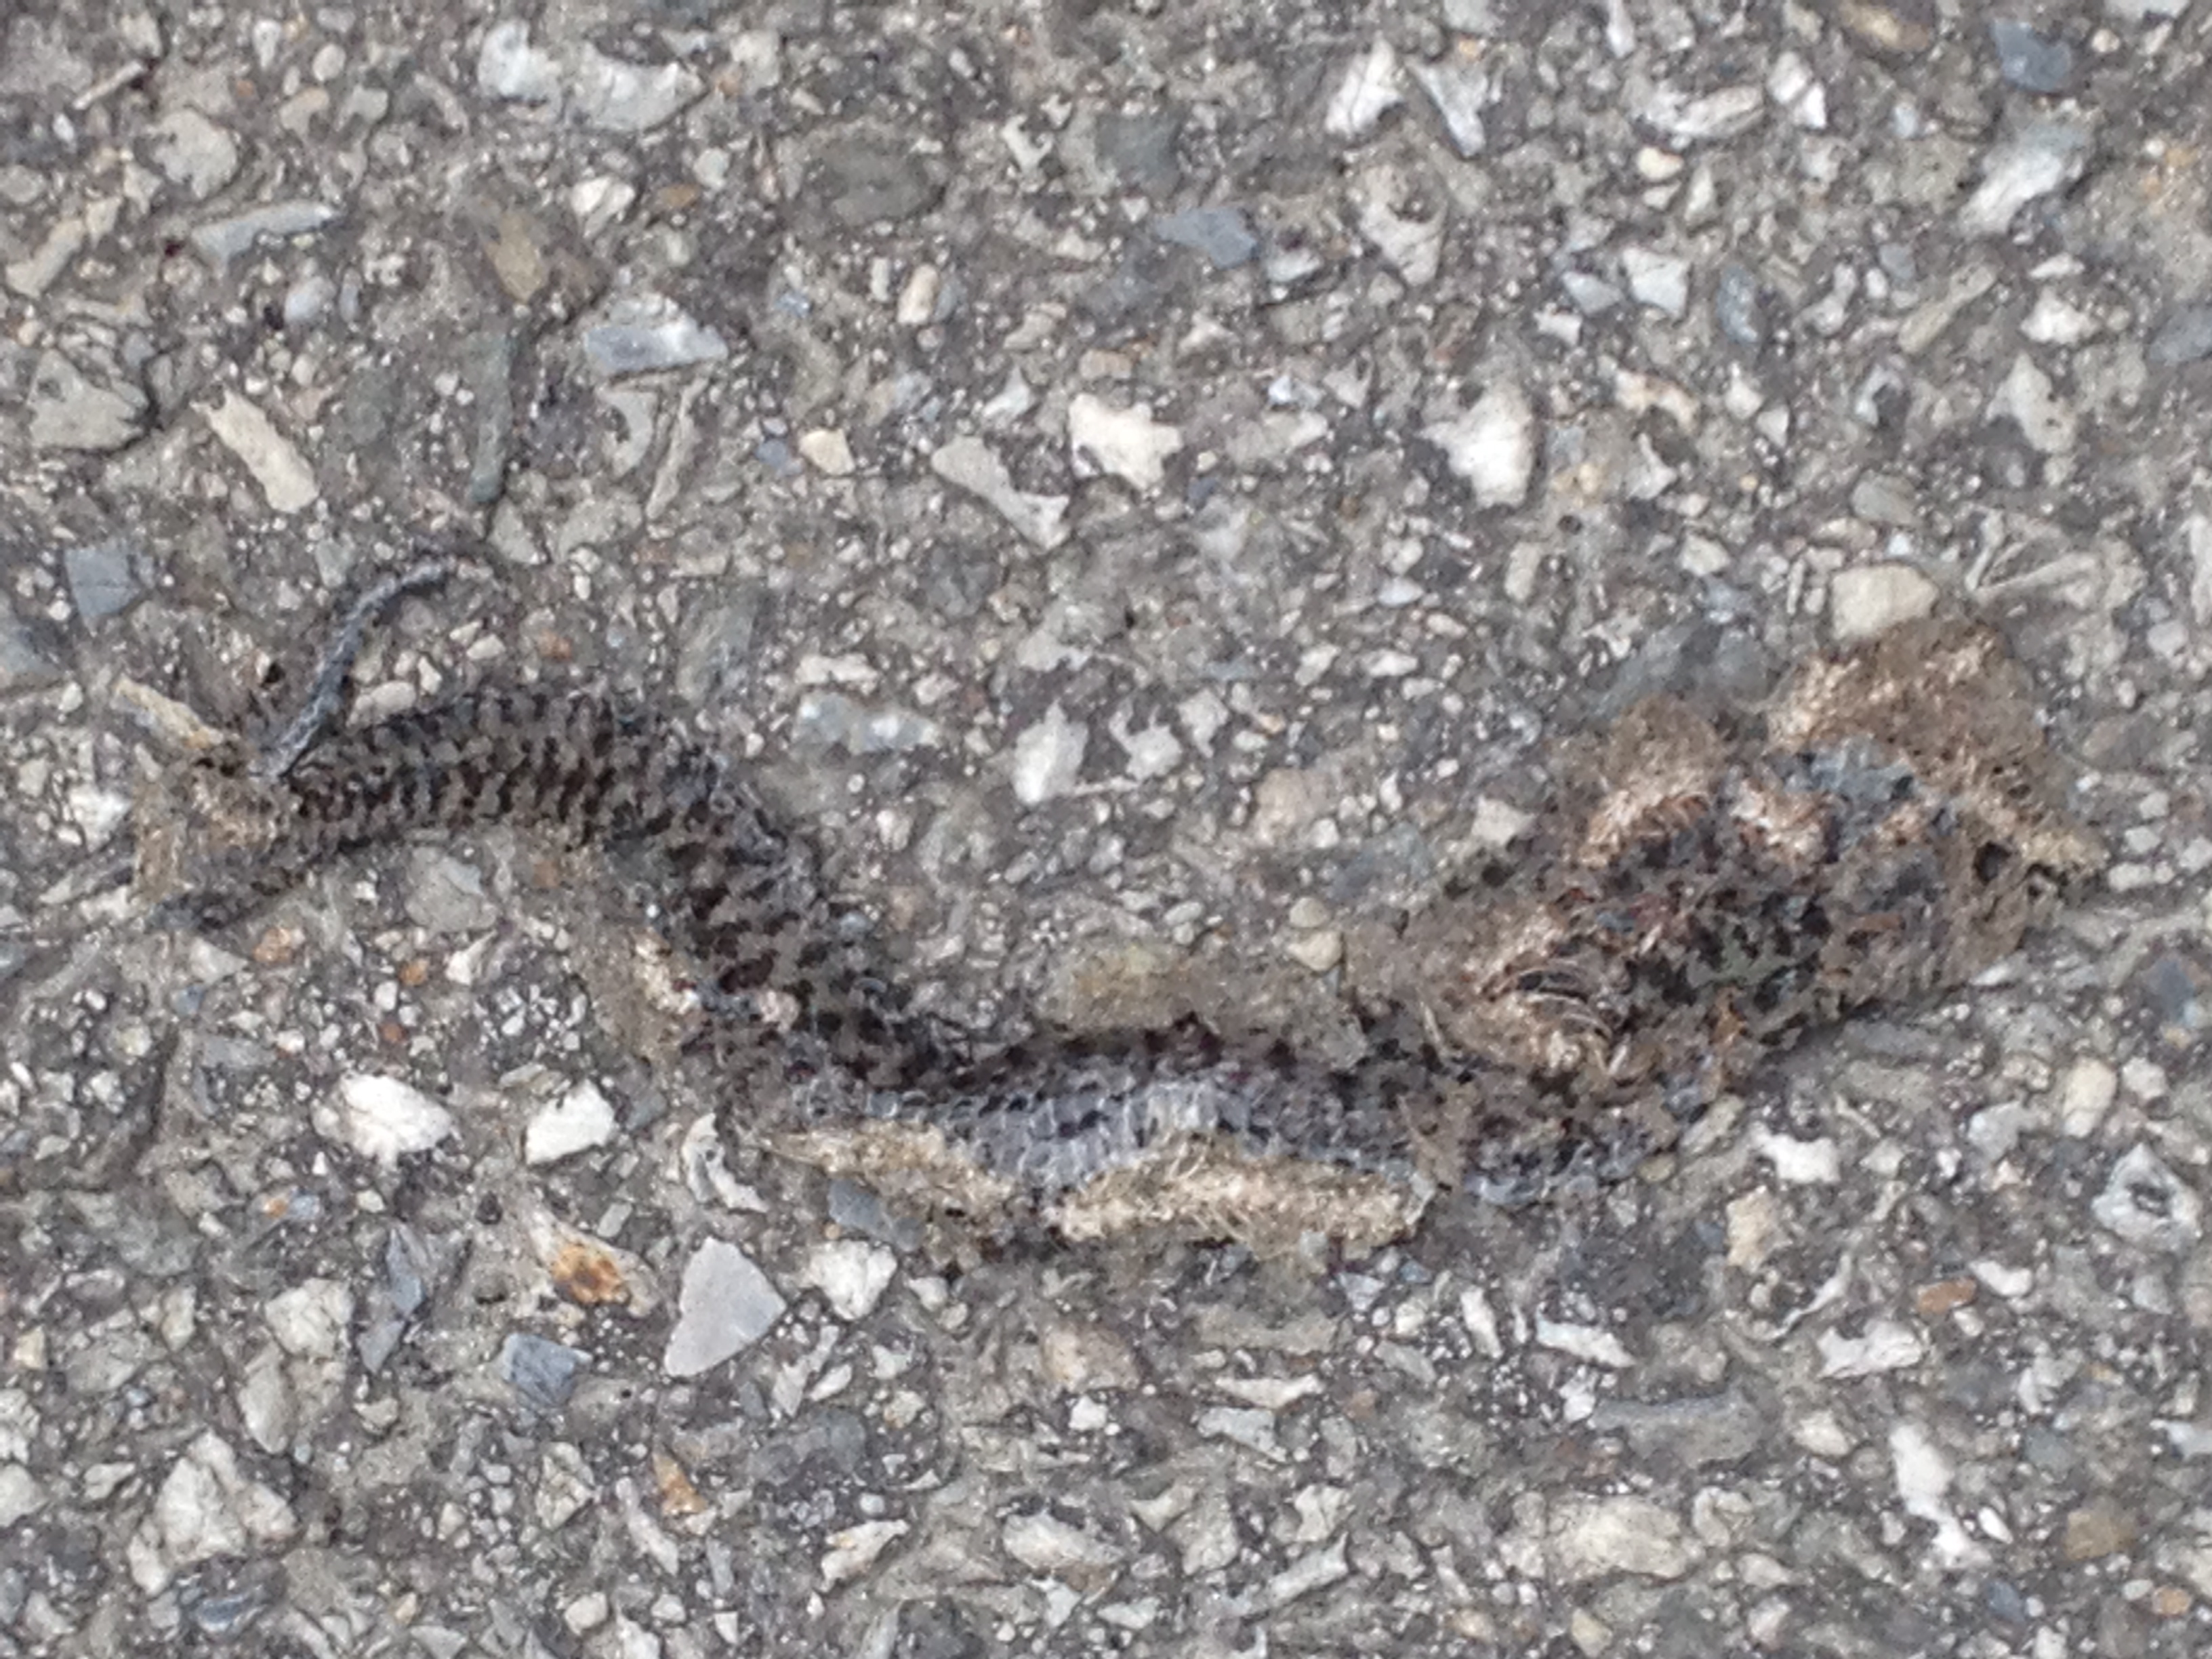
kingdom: Animalia
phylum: Chordata
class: Squamata
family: Viperidae
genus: Vipera
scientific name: Vipera berus
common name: Adder
